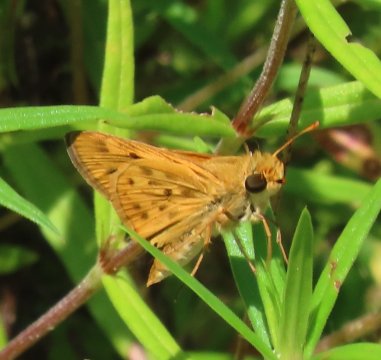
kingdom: Animalia
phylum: Arthropoda
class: Insecta
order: Lepidoptera
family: Hesperiidae
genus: Hylephila
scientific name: Hylephila phyleus
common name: Fiery Skipper
